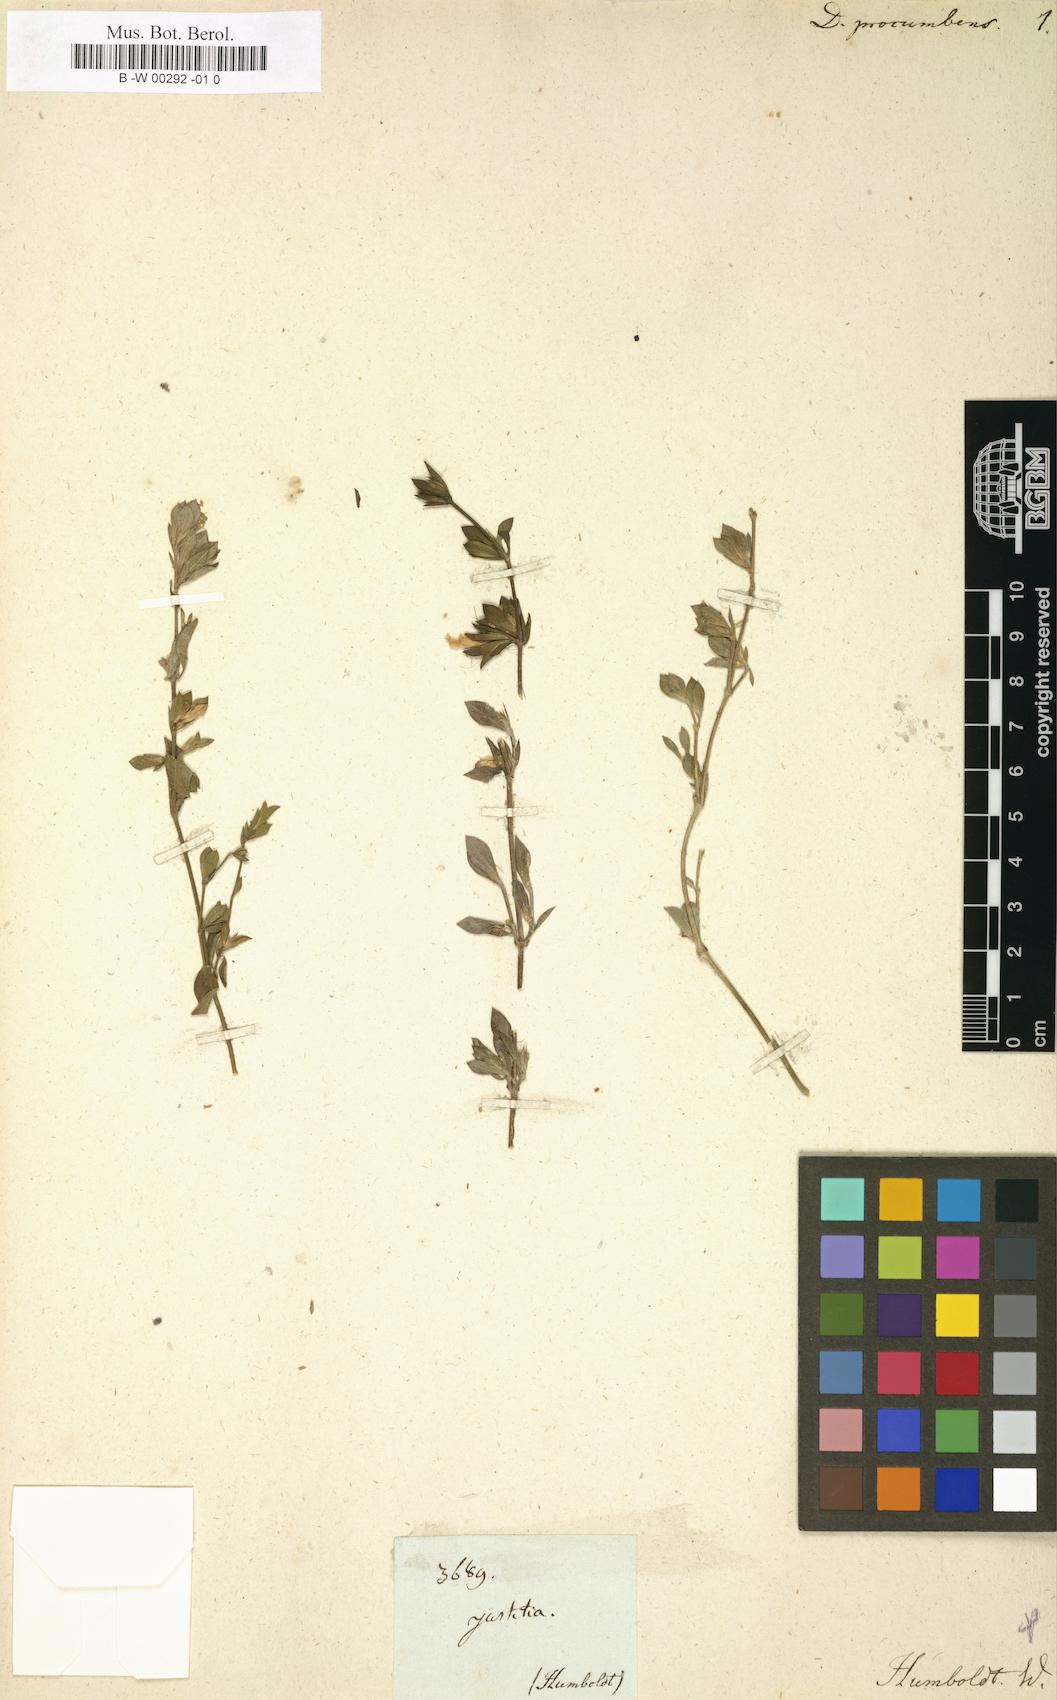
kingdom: Plantae
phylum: Tracheophyta
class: Magnoliopsida
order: Lamiales
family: Acanthaceae
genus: Dicliptera
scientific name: Dicliptera procumbens
